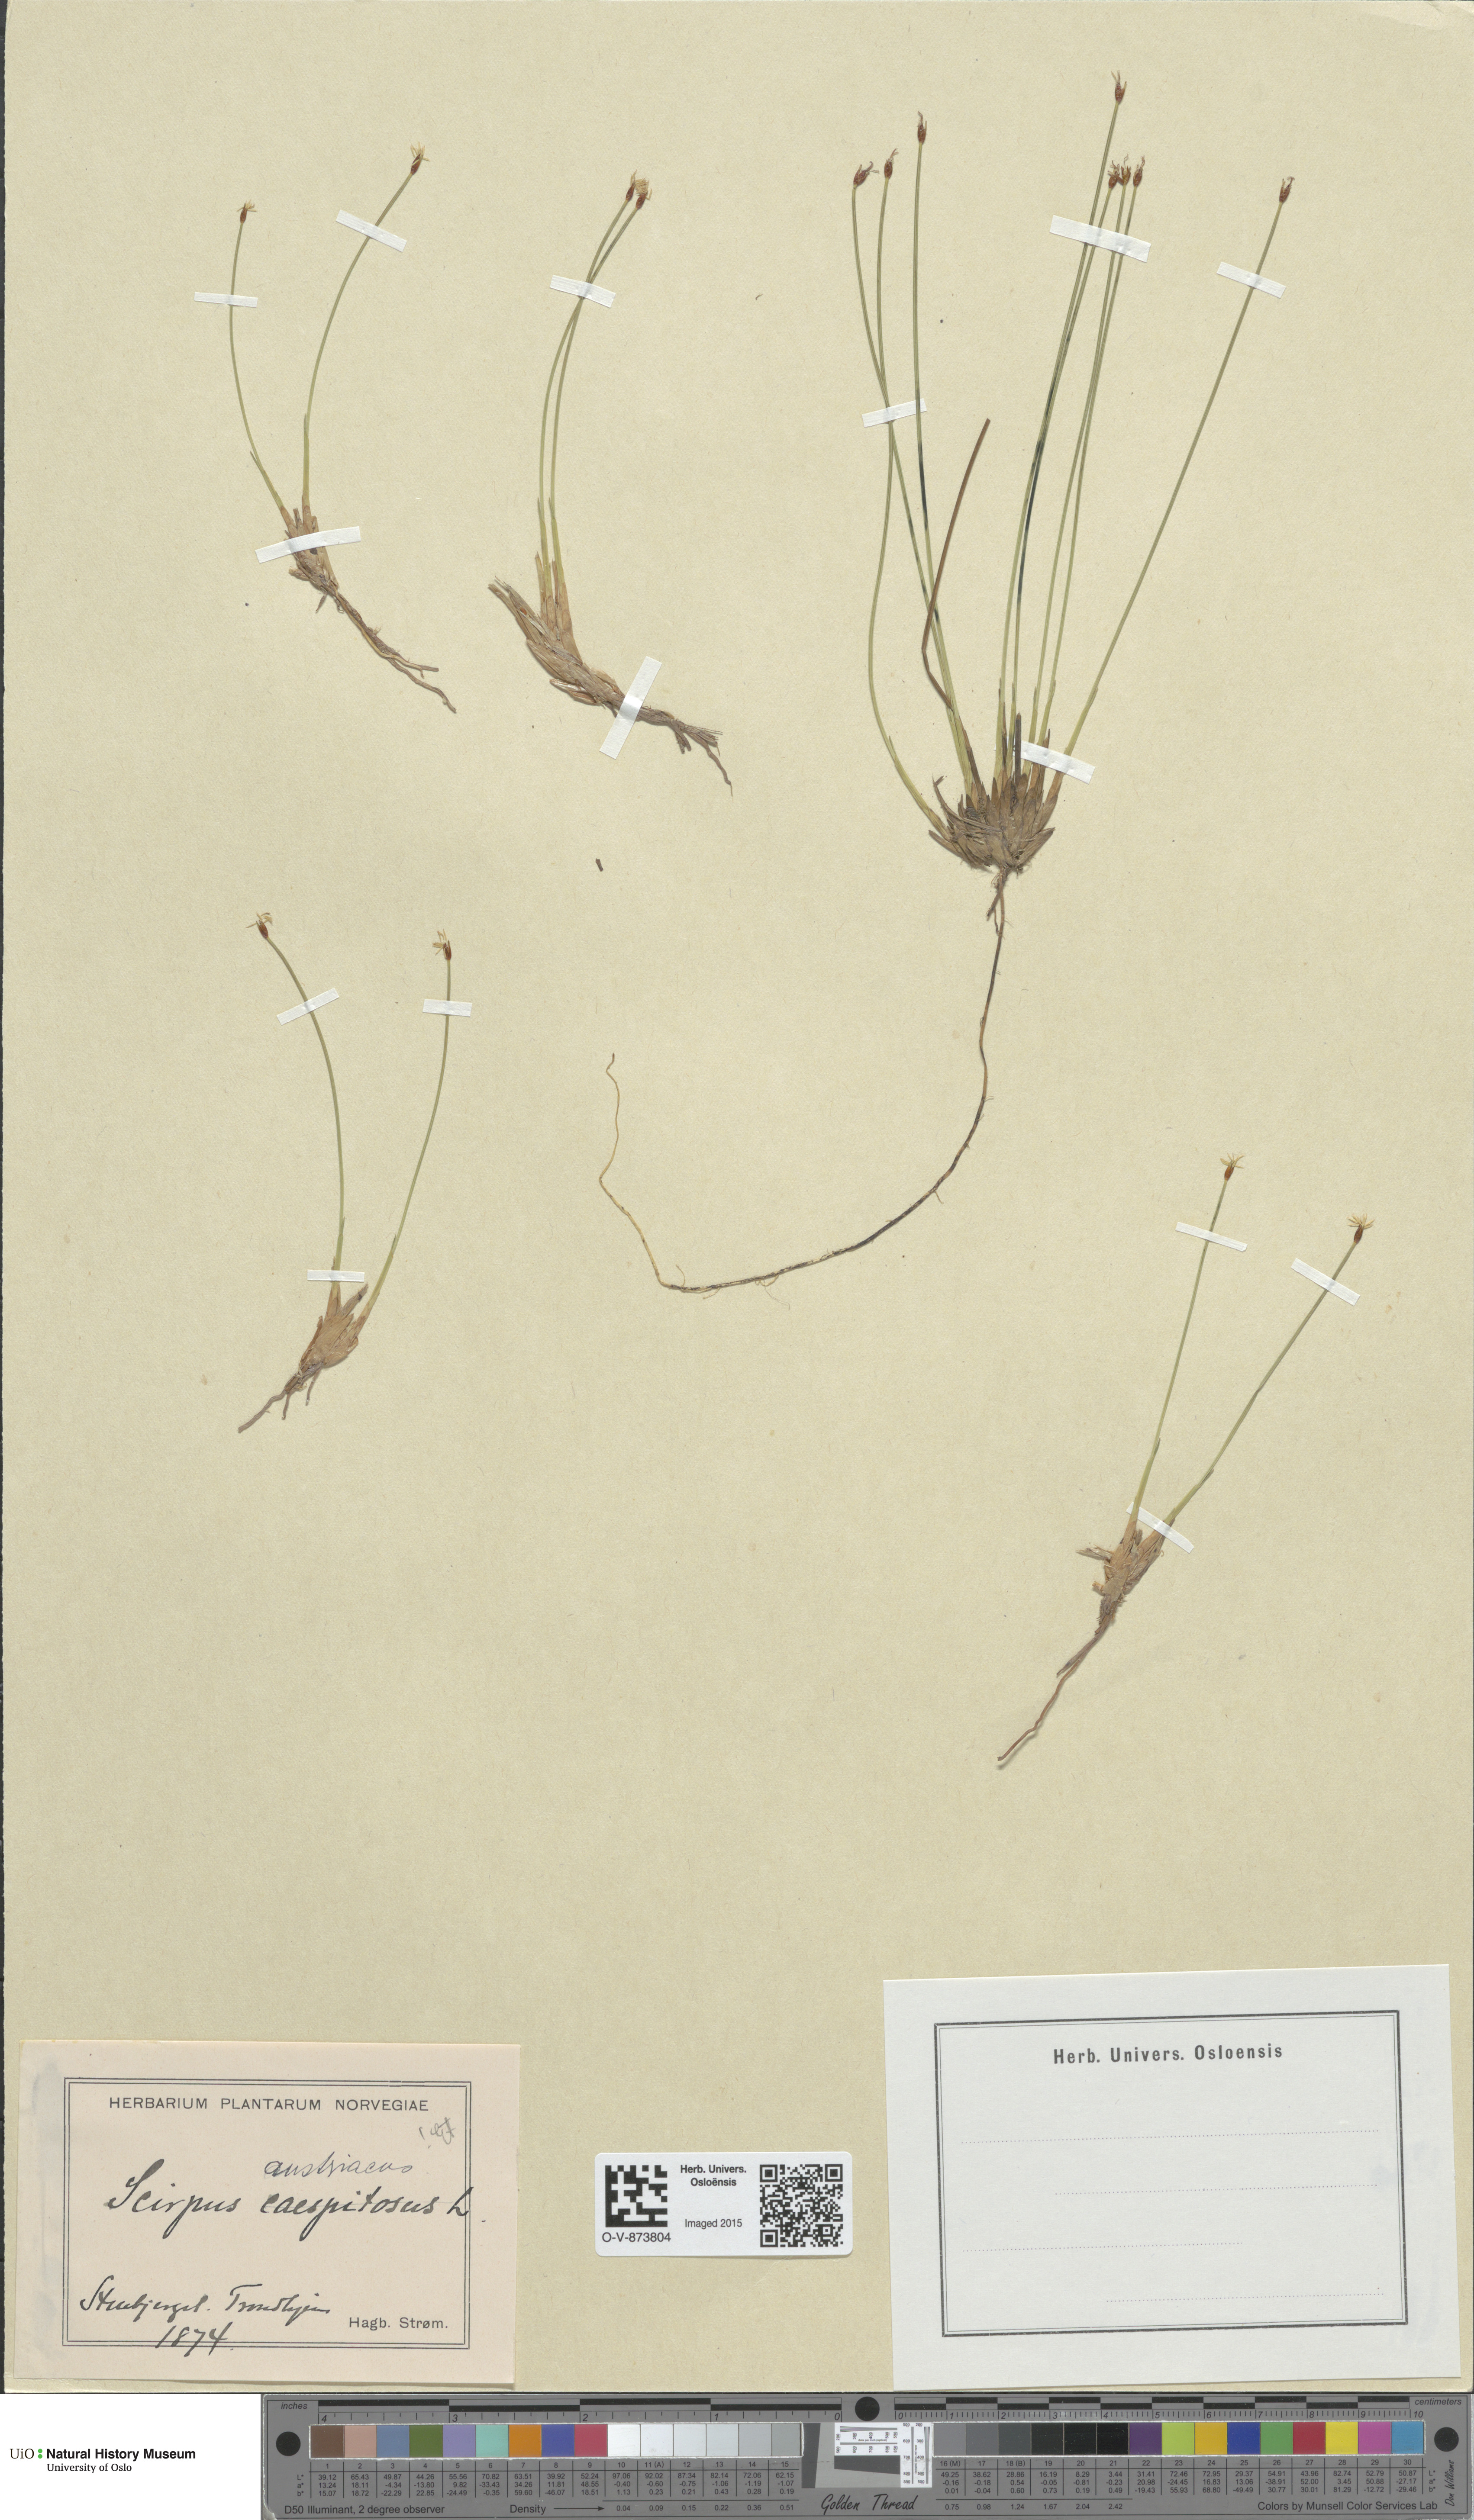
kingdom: Plantae
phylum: Tracheophyta
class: Liliopsida
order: Poales
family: Cyperaceae
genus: Trichophorum
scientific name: Trichophorum cespitosum
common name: Cespitose bulrush
